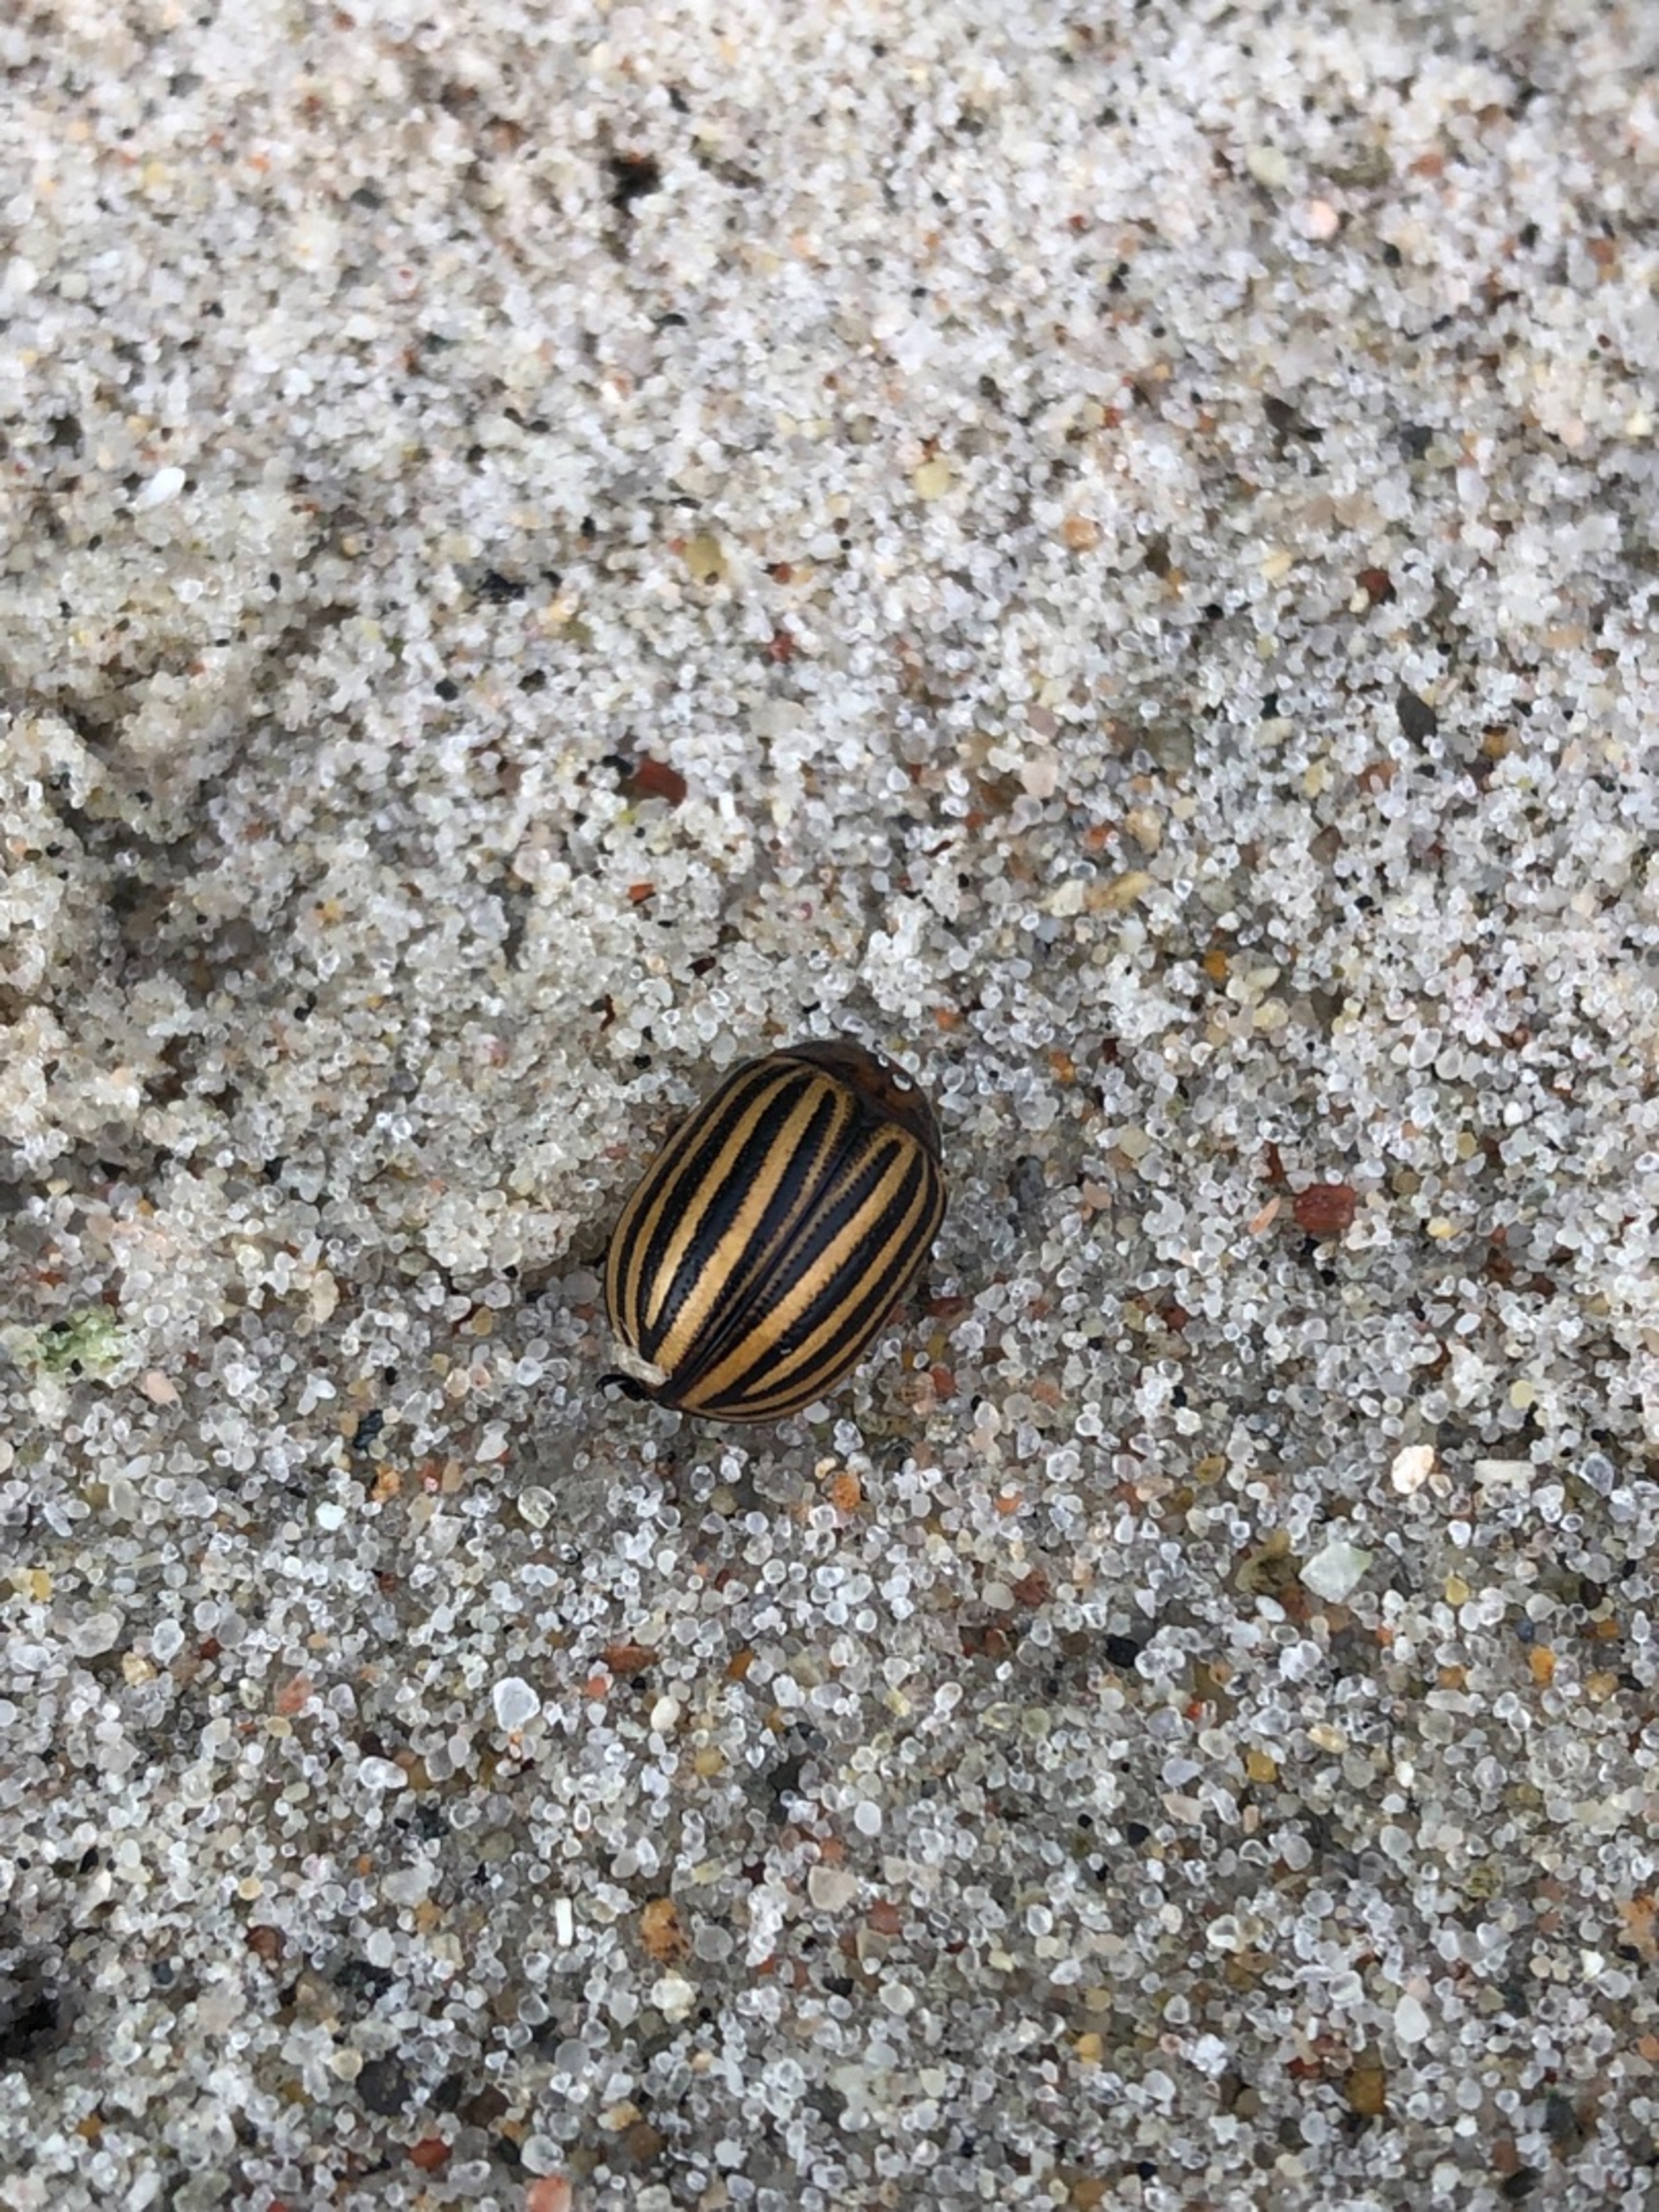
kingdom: Animalia
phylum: Arthropoda
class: Insecta
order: Coleoptera
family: Chrysomelidae
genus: Leptinotarsa
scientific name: Leptinotarsa decemlineata
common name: Coloradobille
